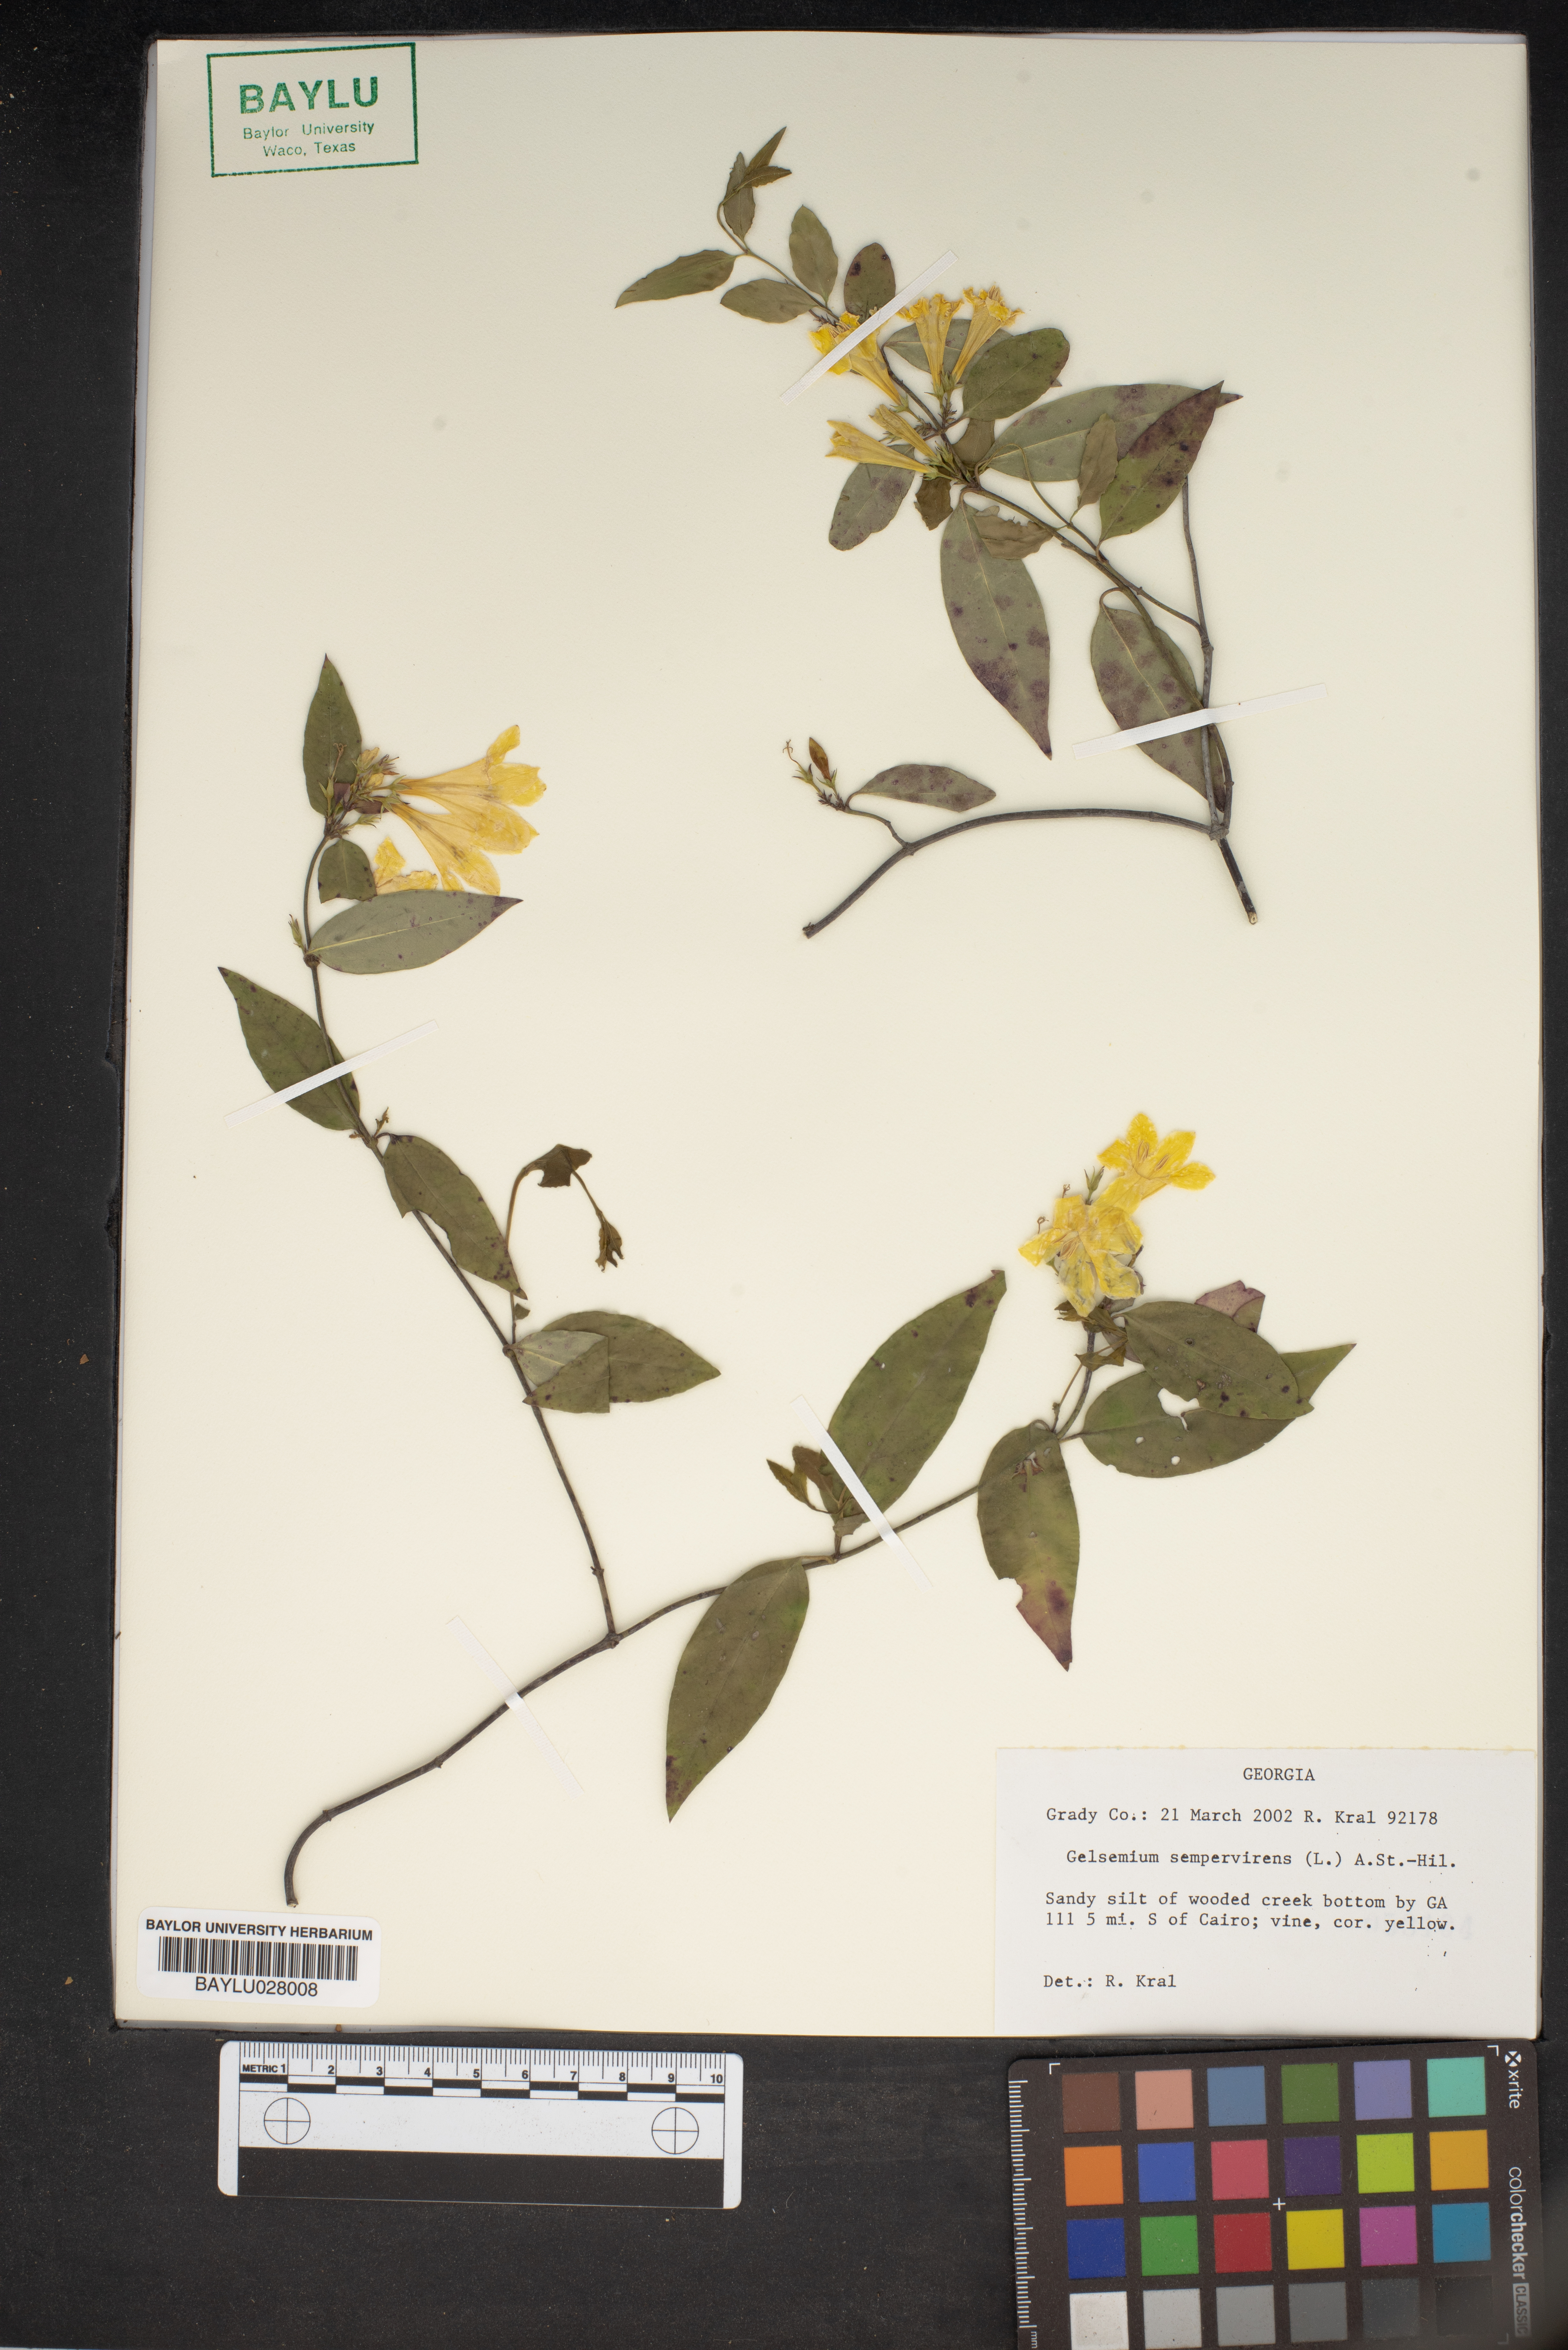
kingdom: Plantae
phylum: Tracheophyta
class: Magnoliopsida
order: Gentianales
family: Gelsemiaceae
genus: Gelsemium
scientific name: Gelsemium sempervirens
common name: Carolina-jasmine
